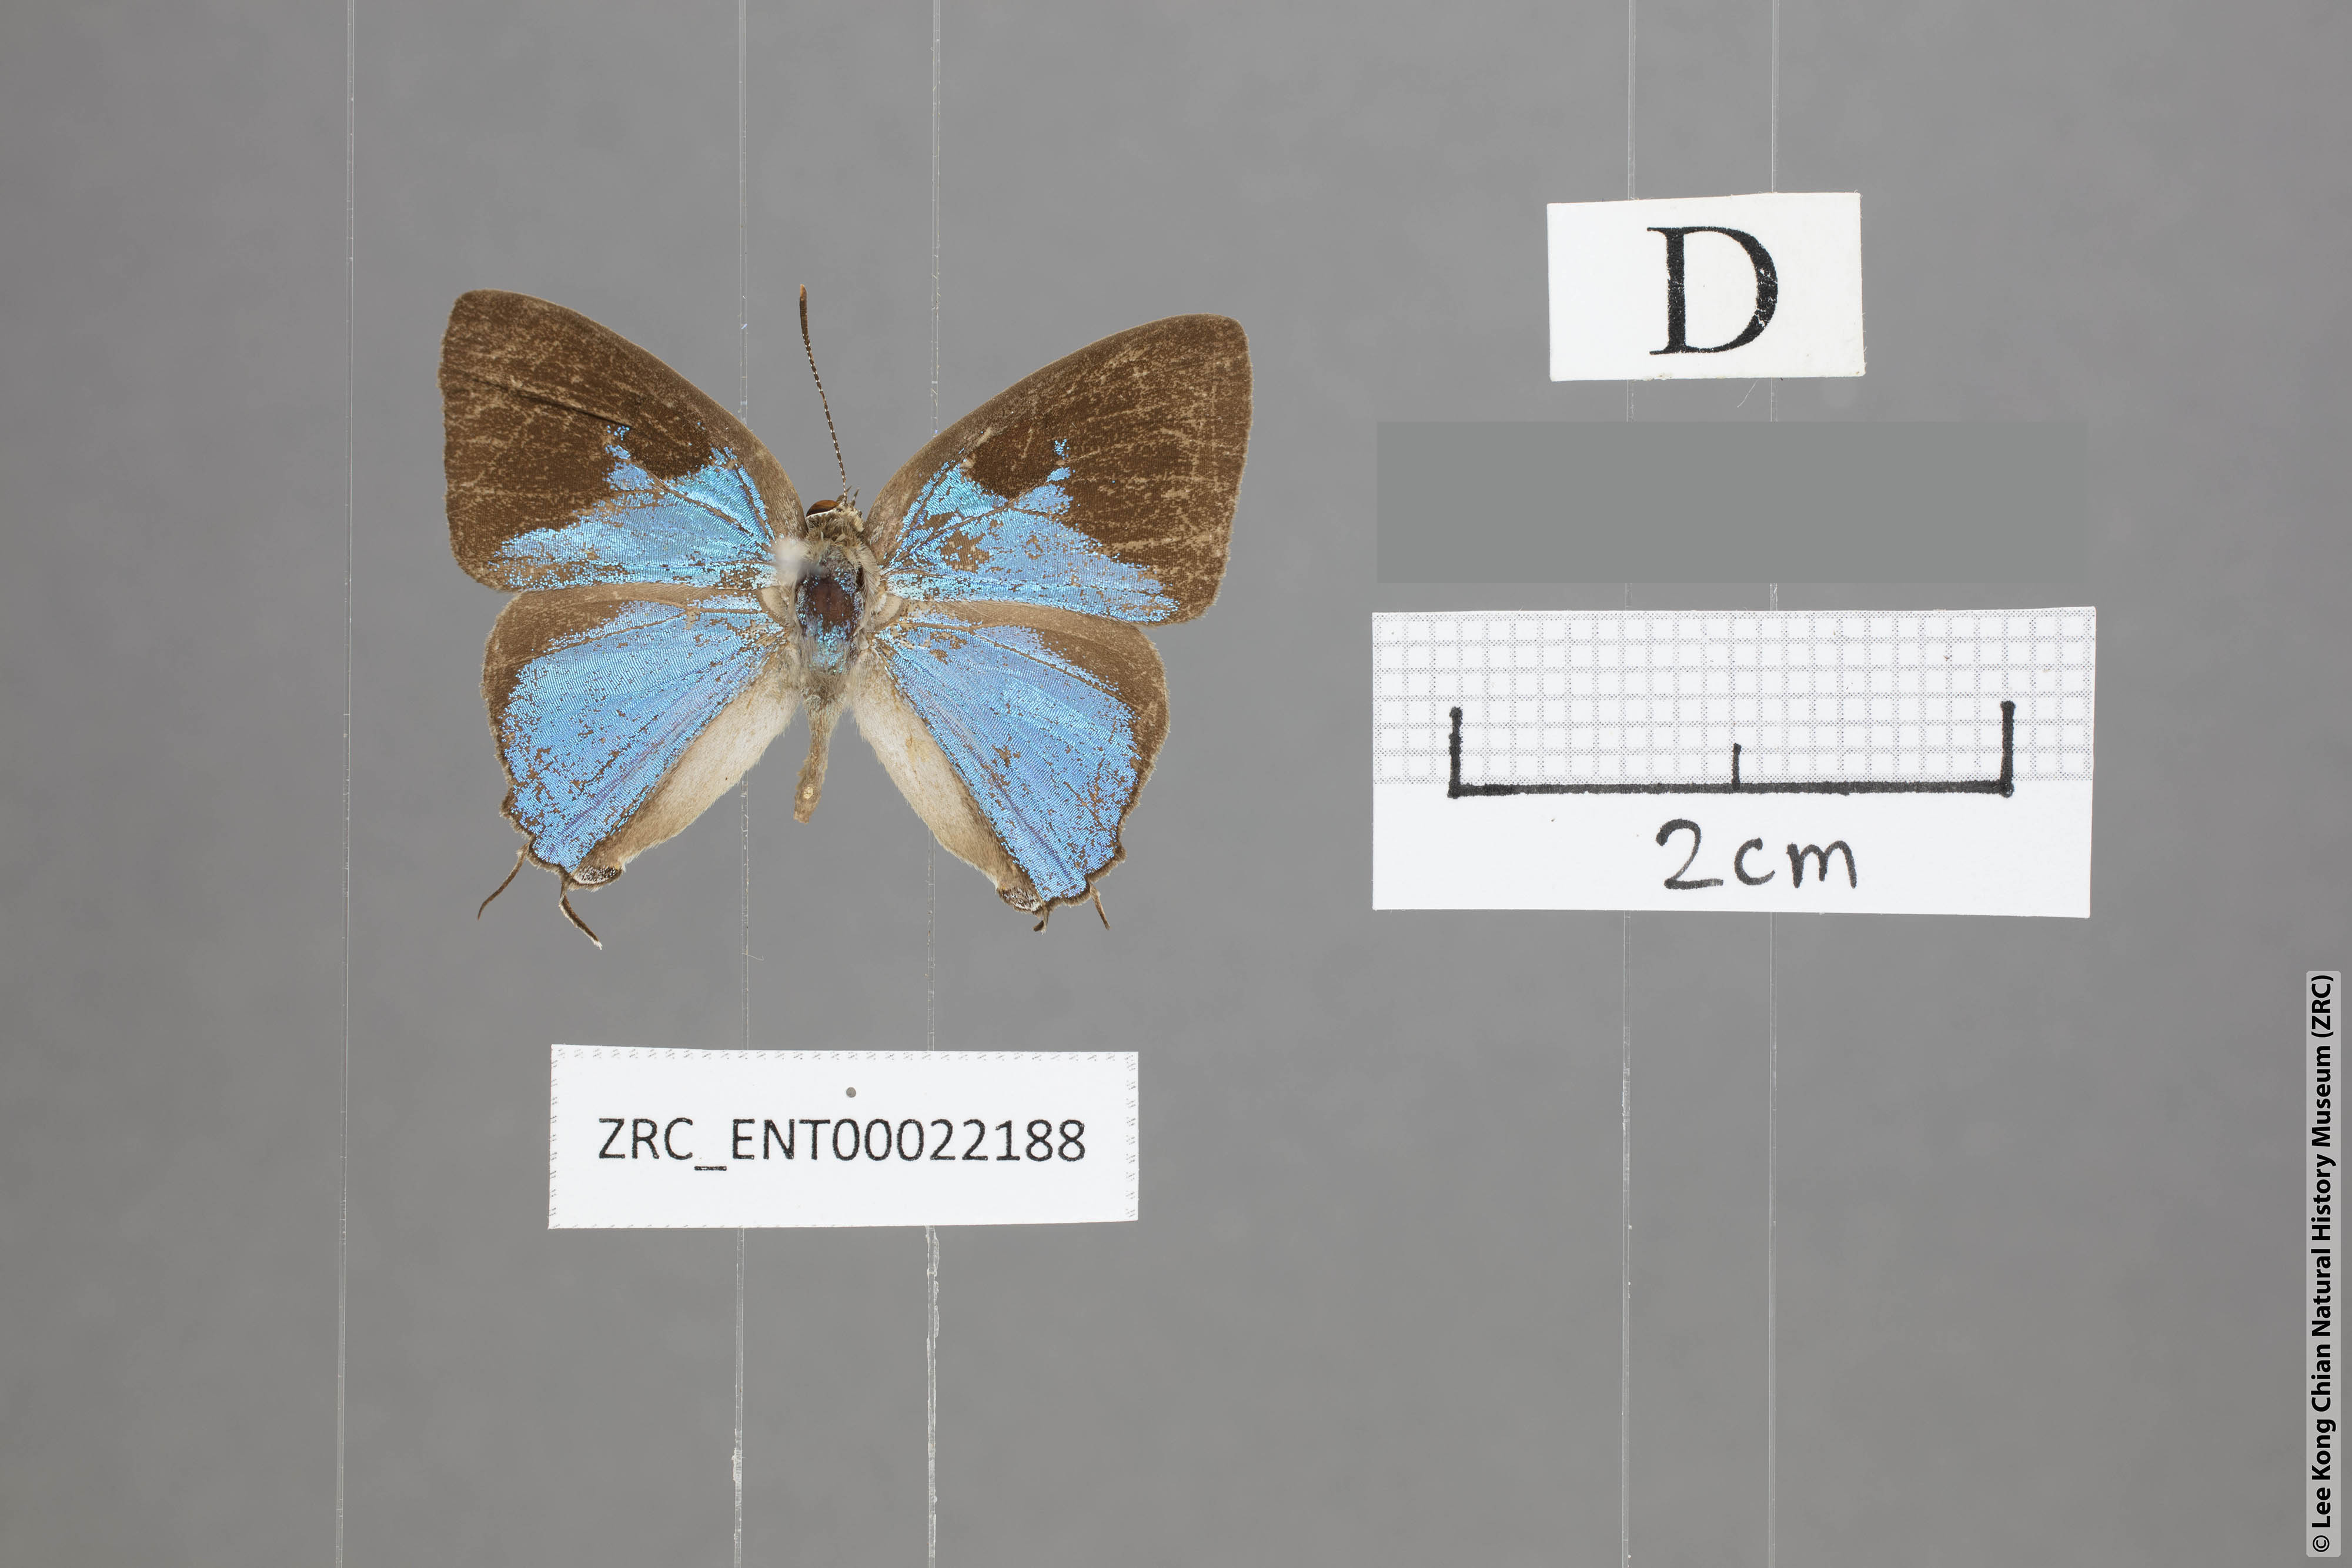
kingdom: Animalia
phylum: Arthropoda
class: Insecta
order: Lepidoptera
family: Lycaenidae
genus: Tajuria
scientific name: Tajuria dominus
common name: Influent royal
